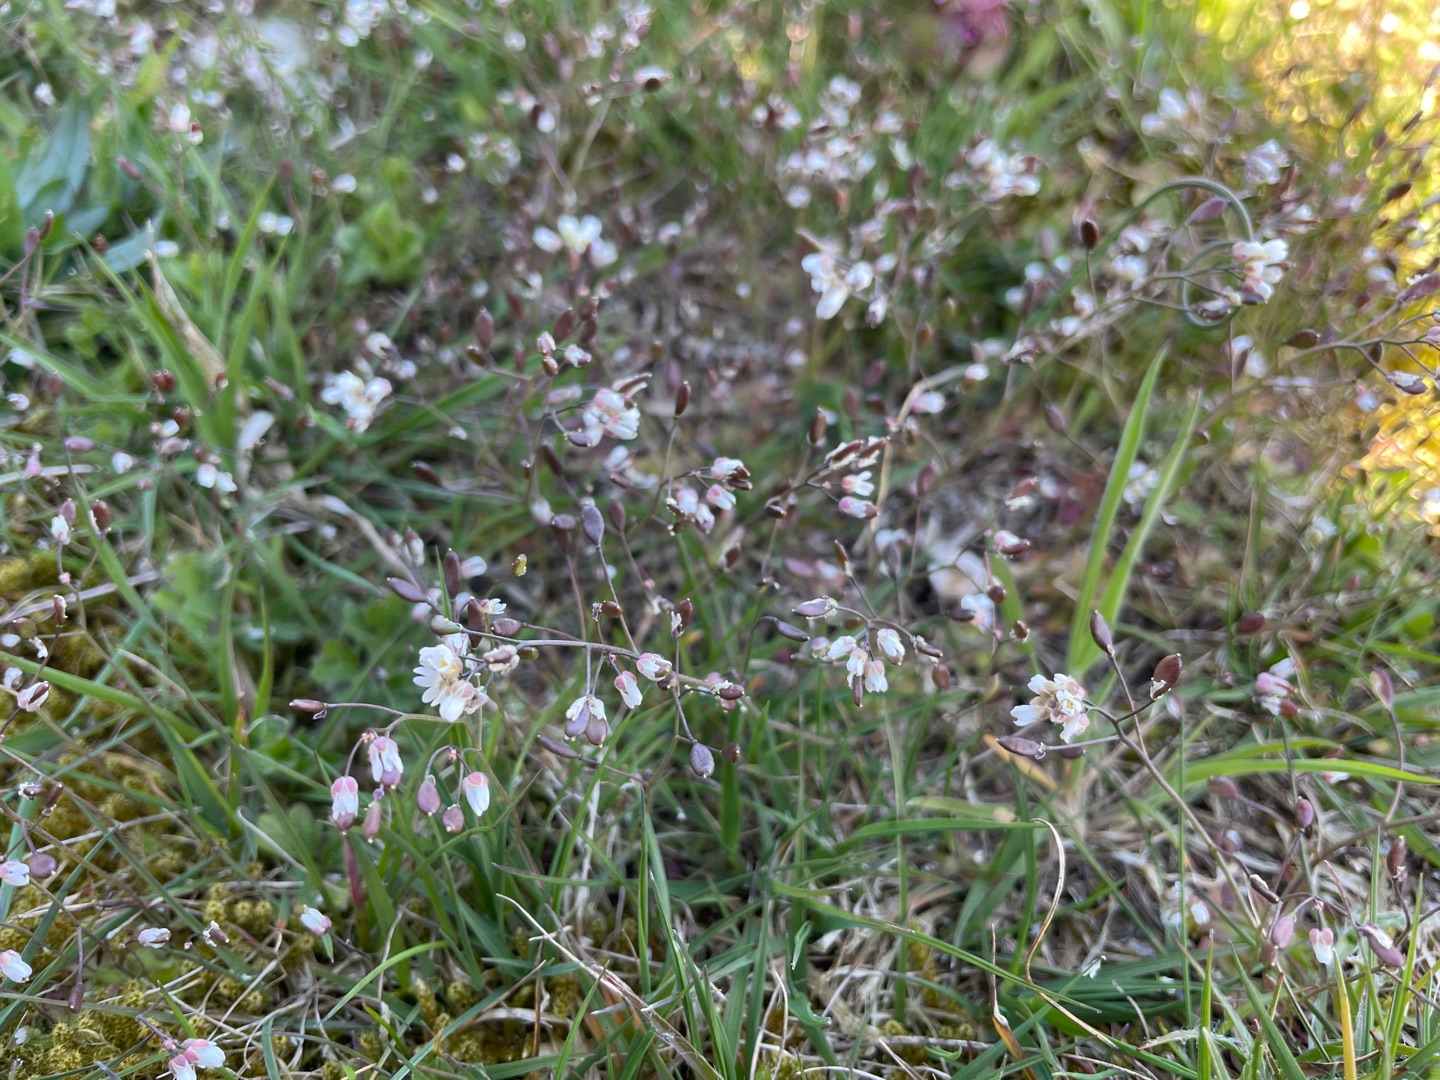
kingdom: Plantae
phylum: Tracheophyta
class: Magnoliopsida
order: Brassicales
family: Brassicaceae
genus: Draba
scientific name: Draba verna
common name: Vår-gæslingeblomst
